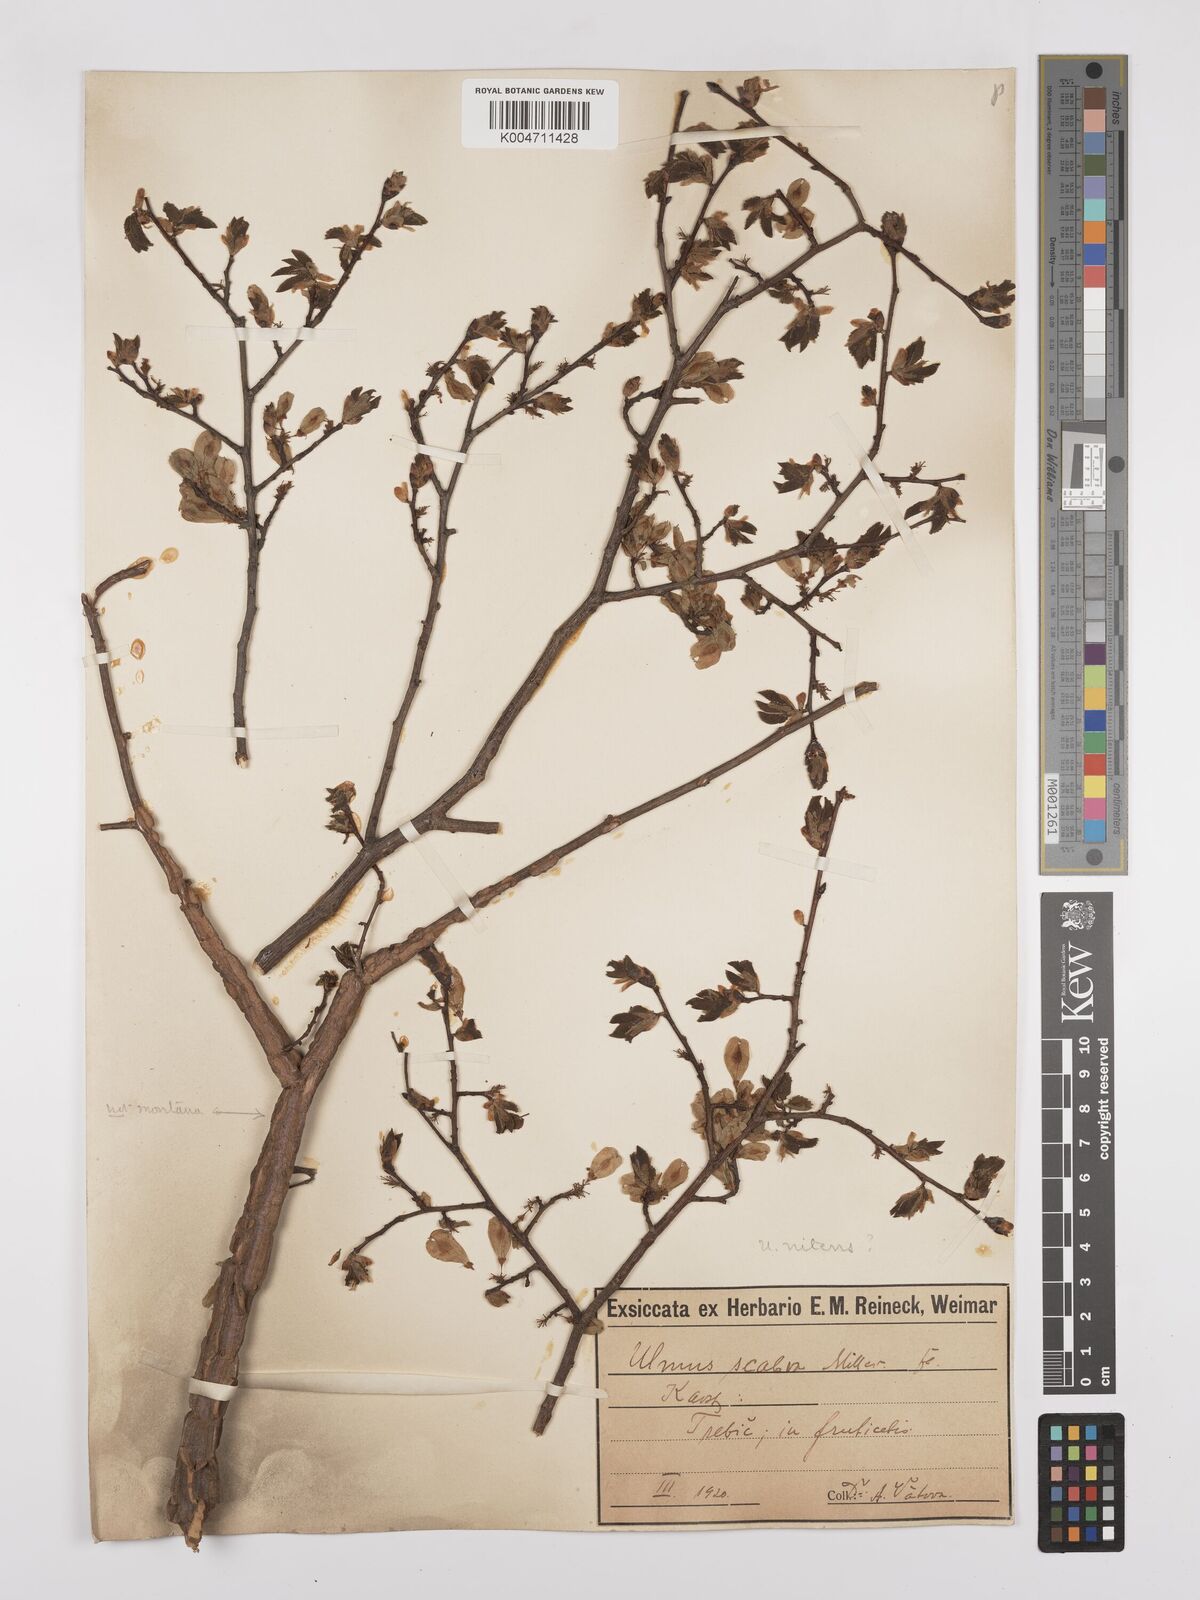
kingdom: Plantae
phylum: Tracheophyta
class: Magnoliopsida
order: Rosales
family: Ulmaceae
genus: Ulmus
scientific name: Ulmus minor
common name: Small-leaved elm
